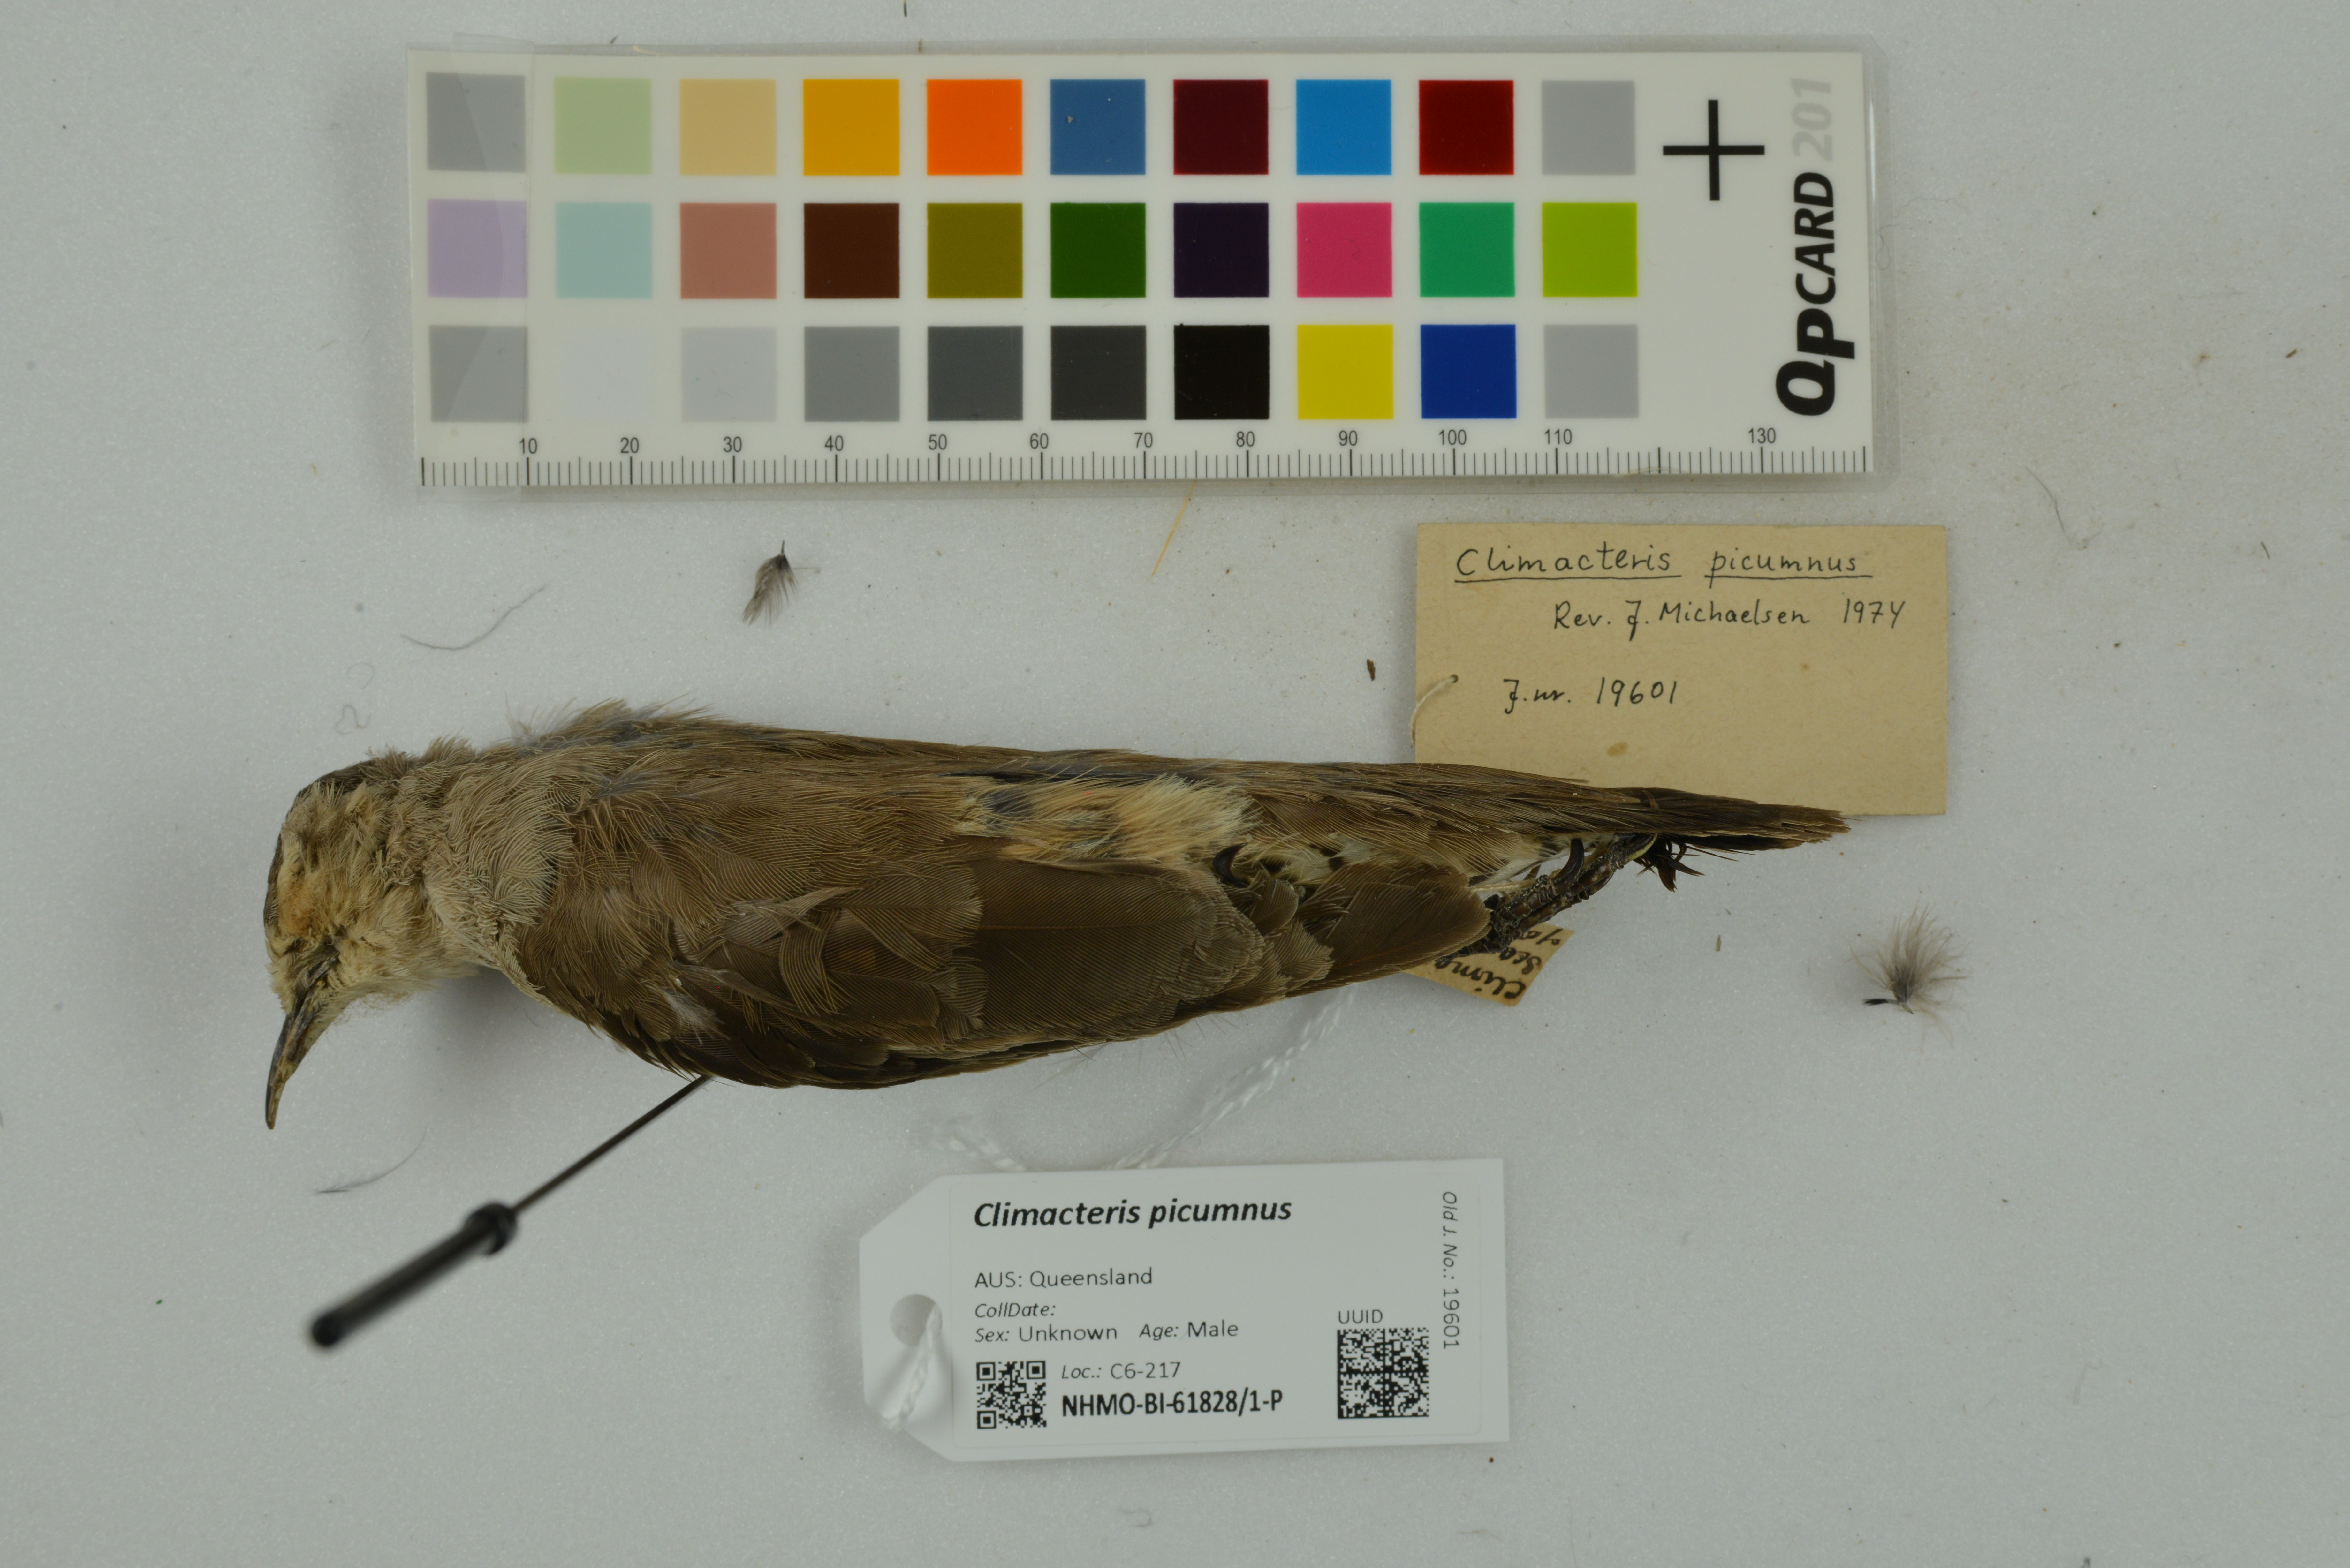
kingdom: Animalia
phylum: Chordata
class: Aves
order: Passeriformes
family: Climacteridae
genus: Climacteris
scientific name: Climacteris picumnus
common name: Brown treecreeper
